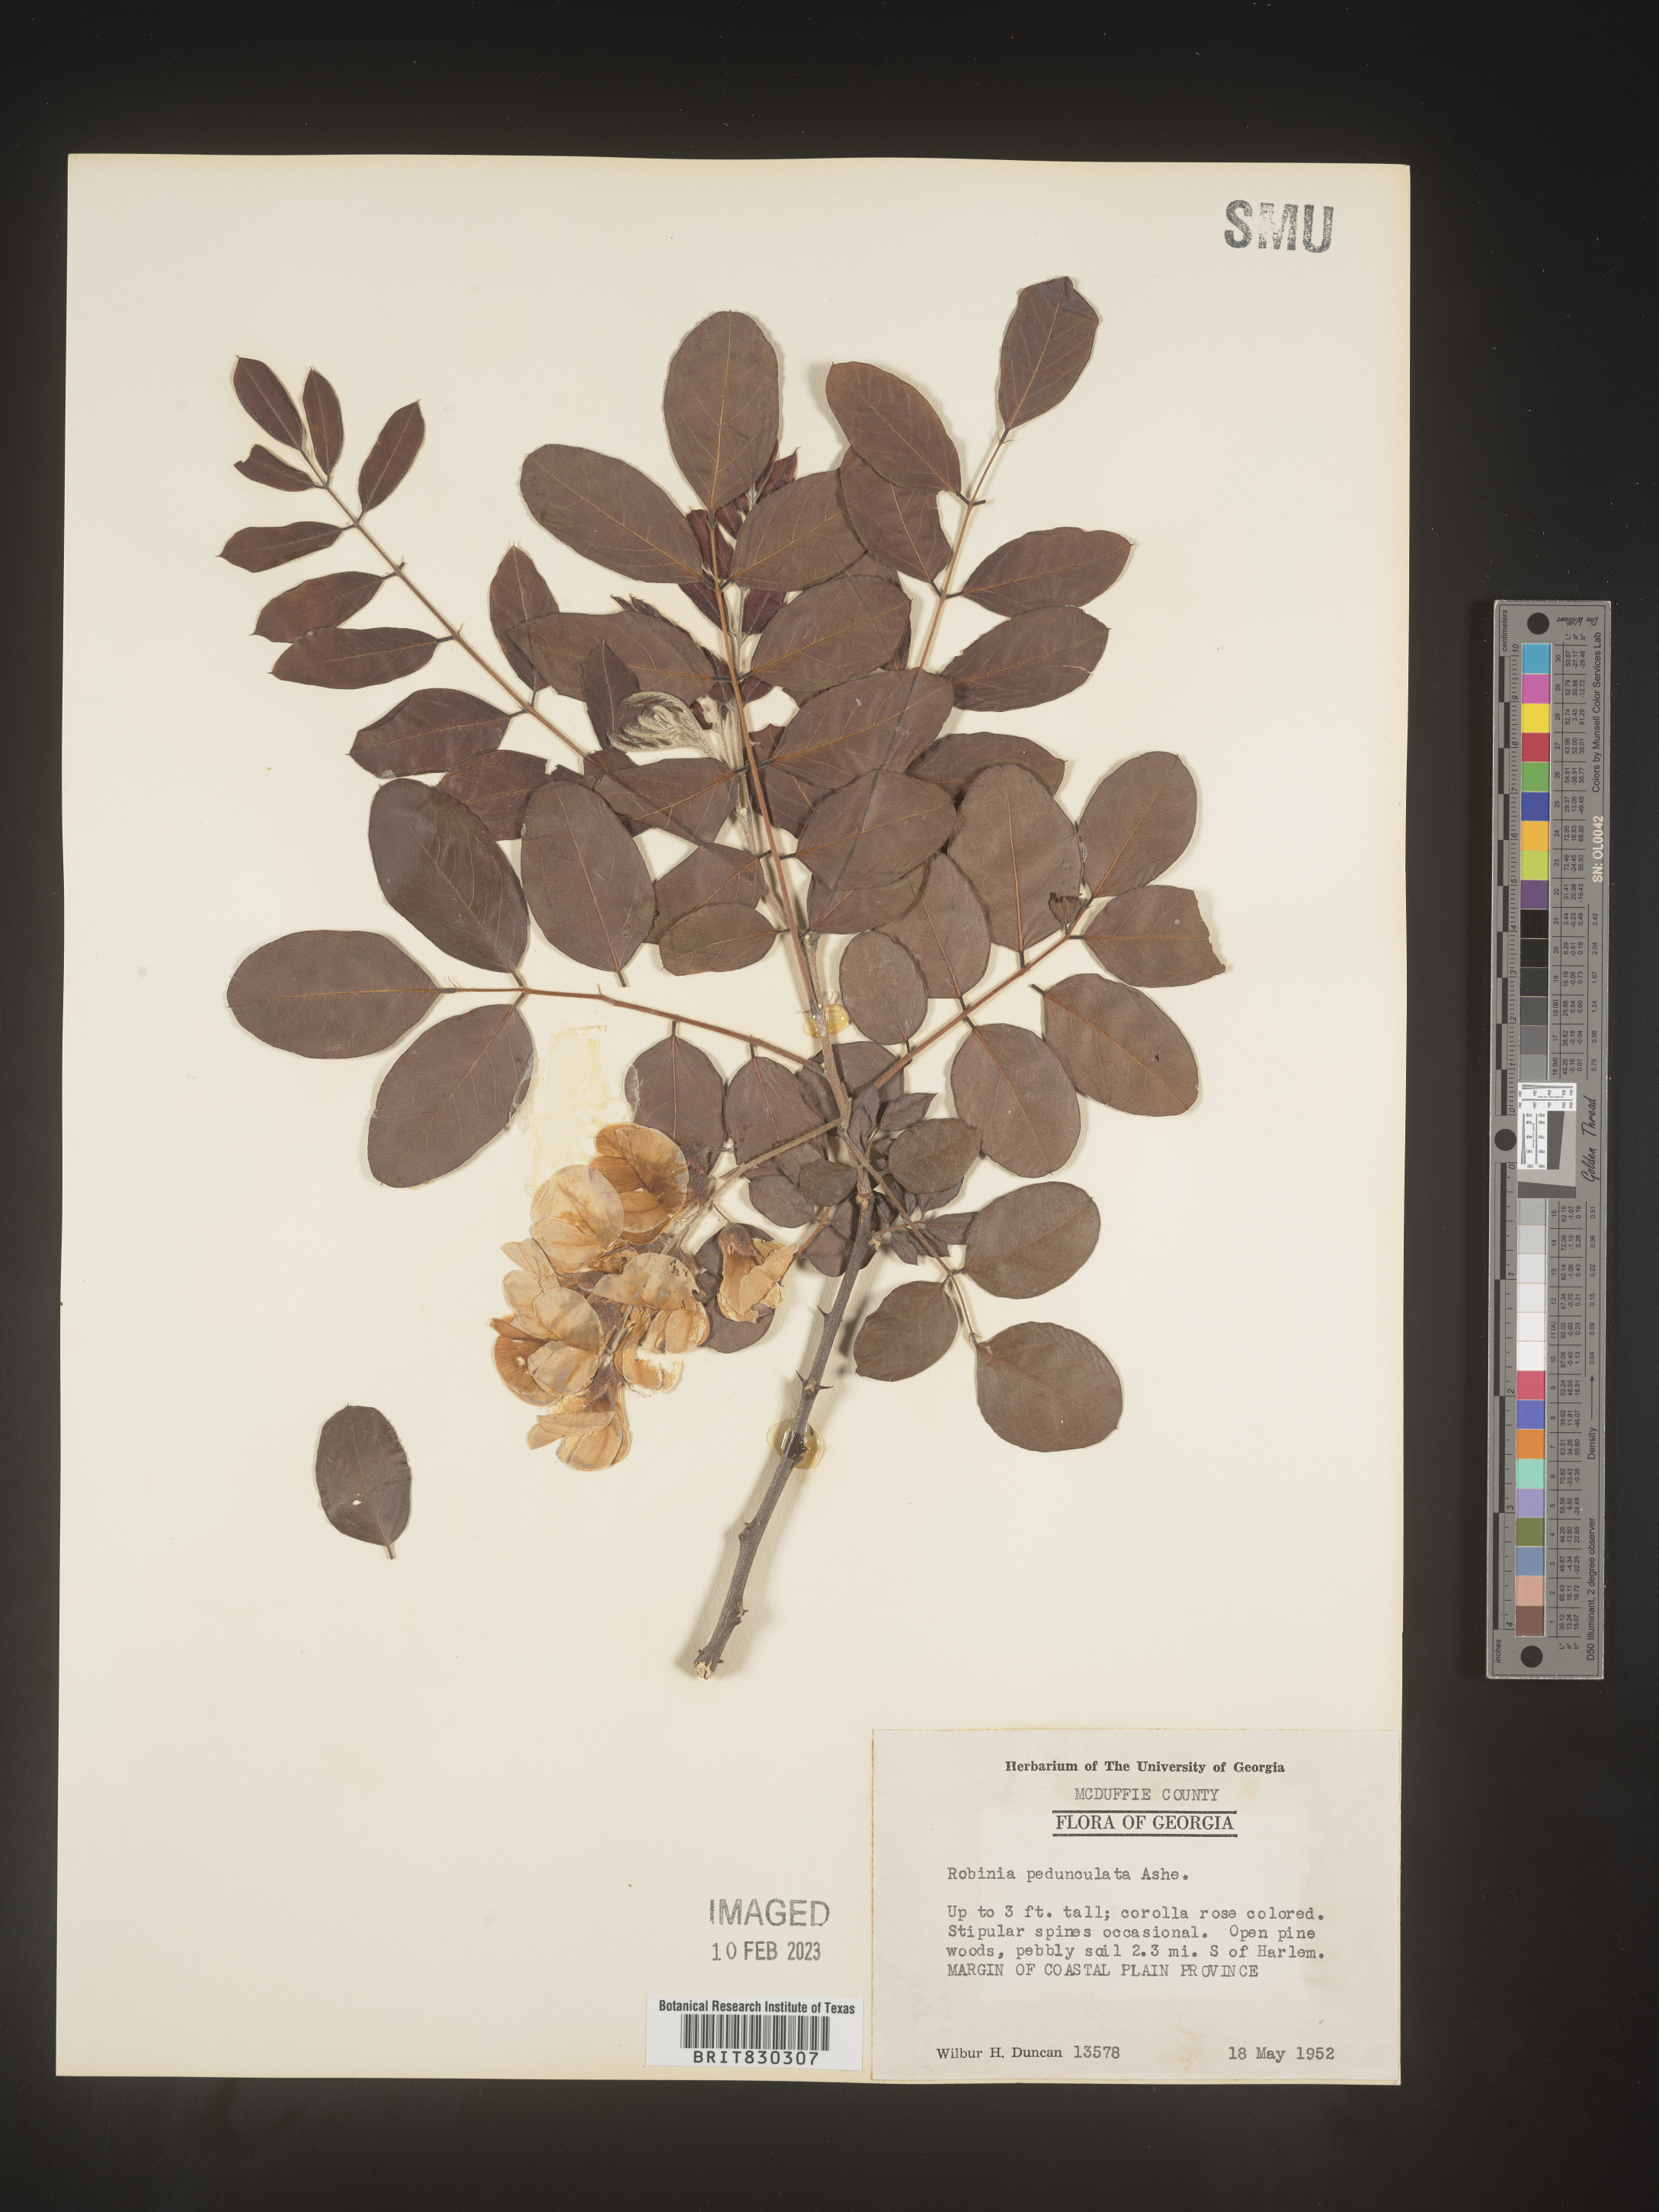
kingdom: Plantae
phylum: Tracheophyta
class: Magnoliopsida
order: Fabales
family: Fabaceae
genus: Robinia
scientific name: Robinia pseudoacacia
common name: Black locust
